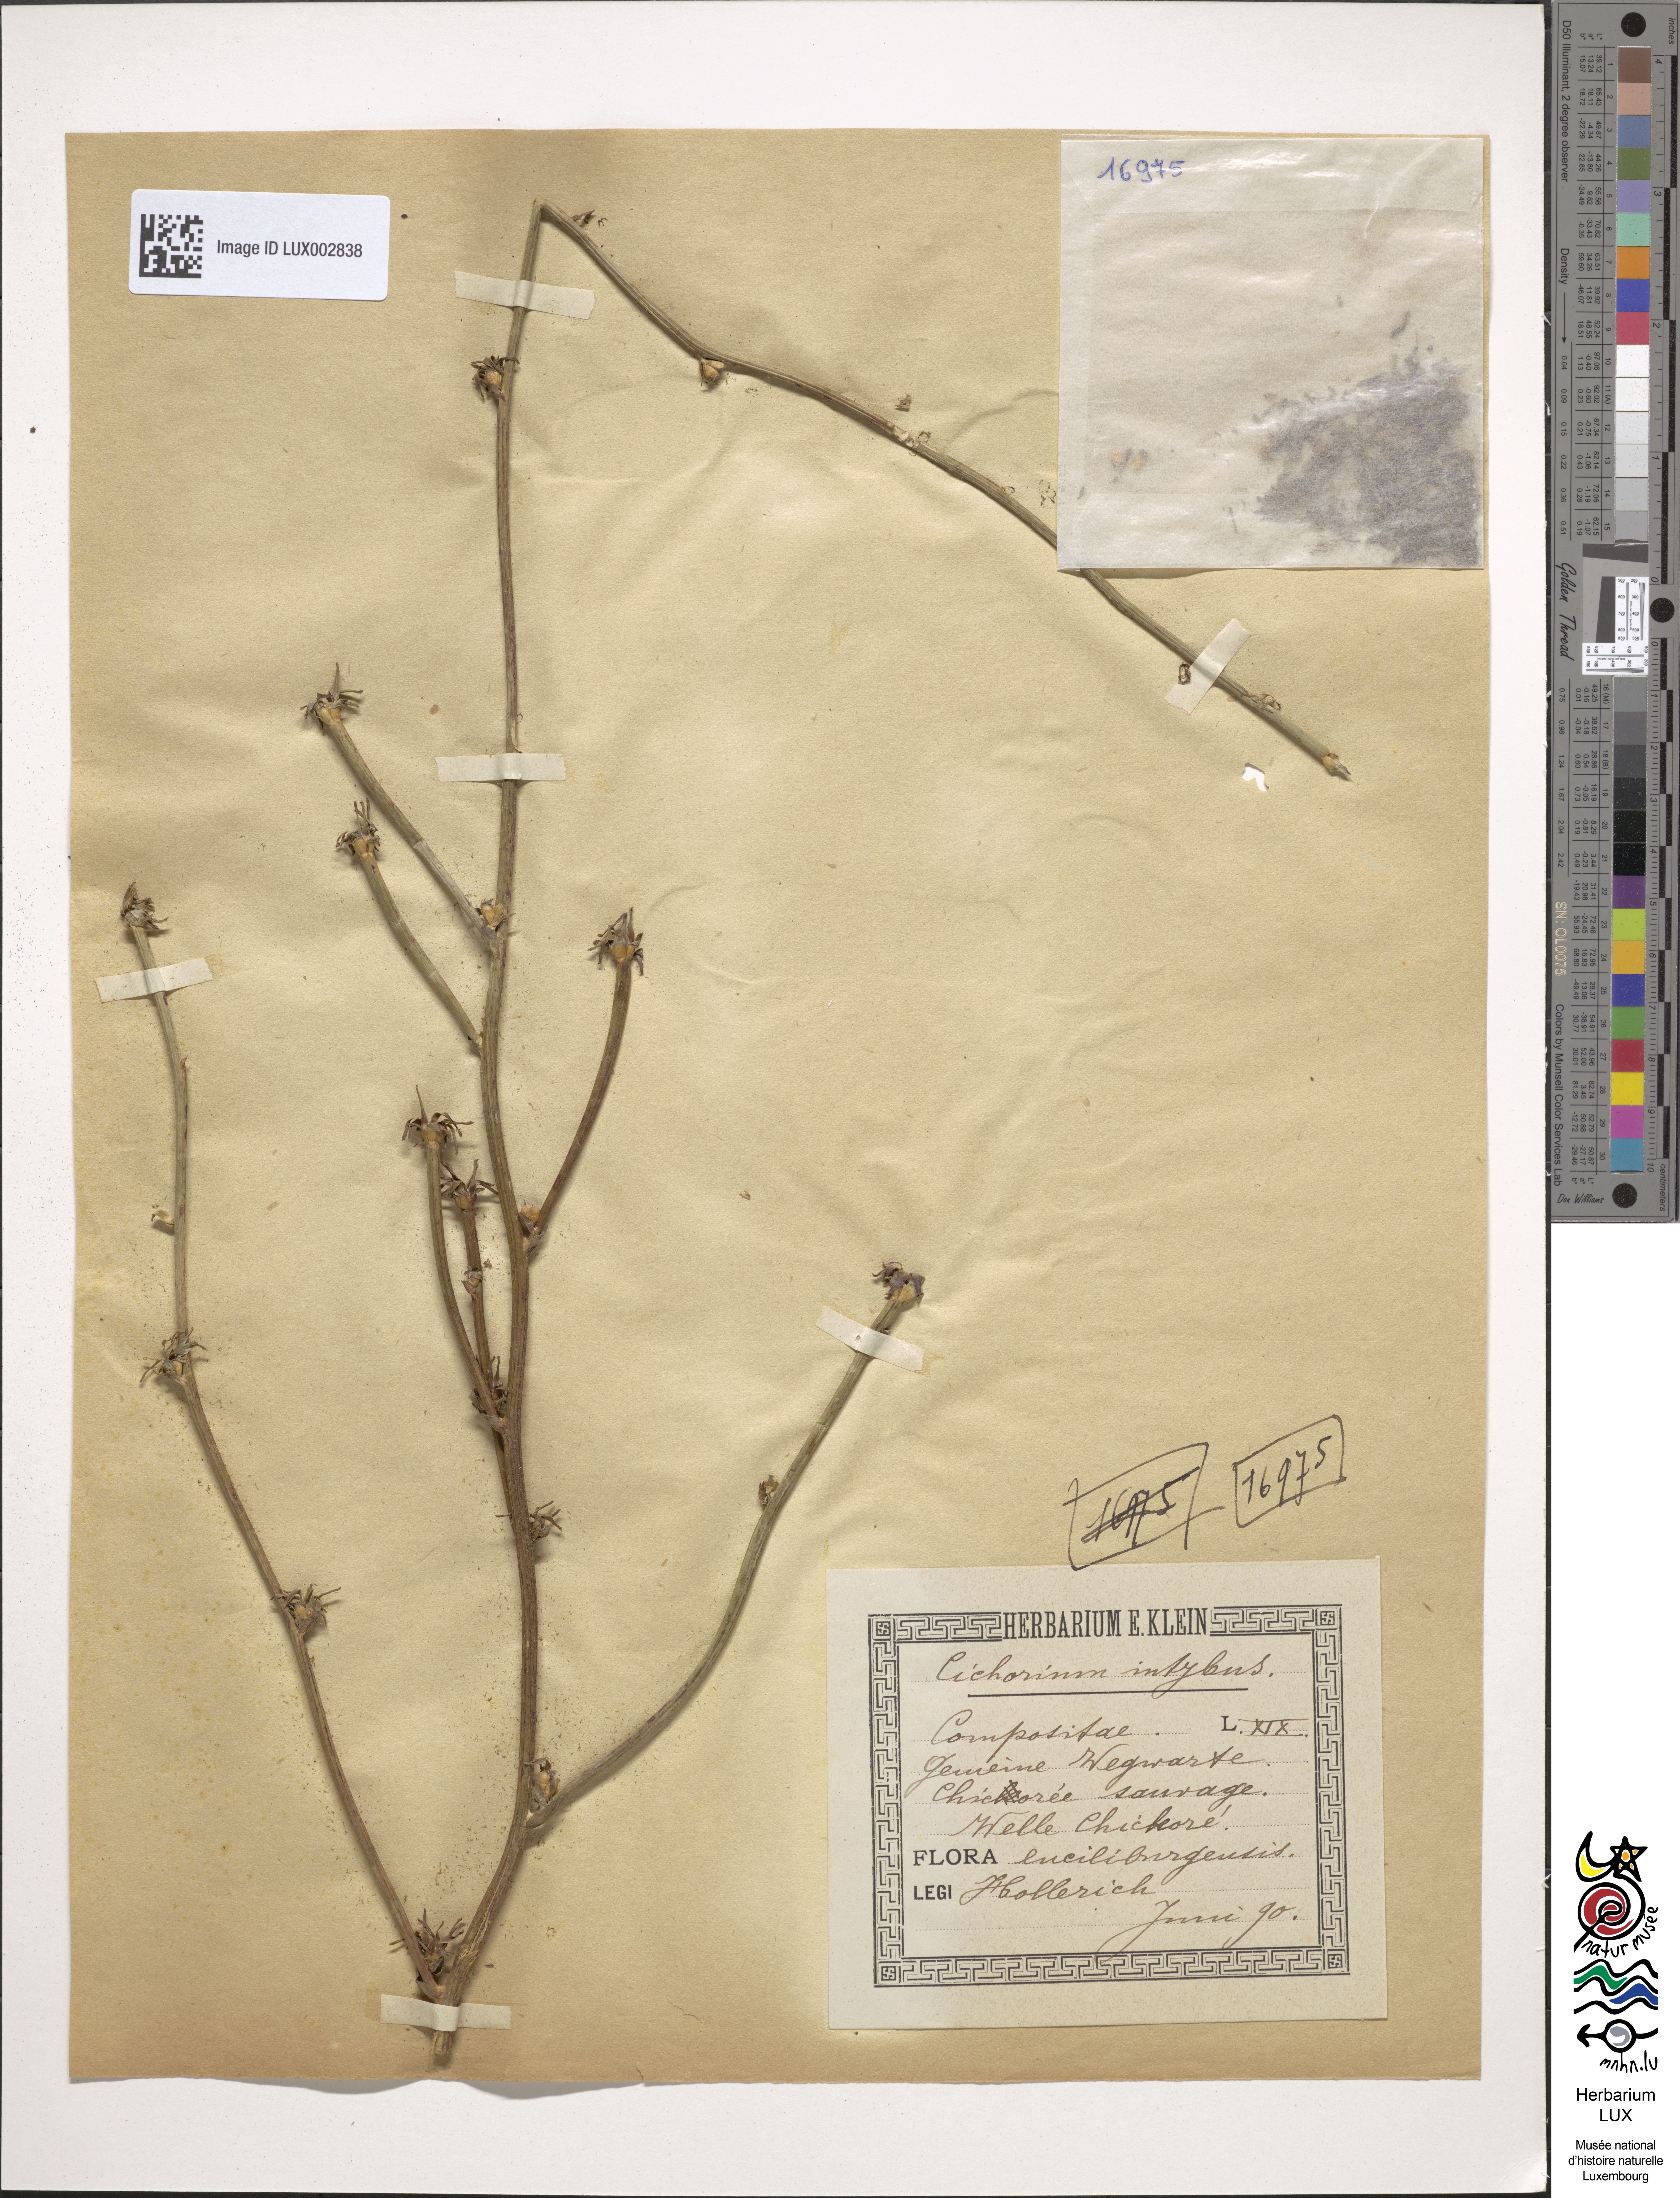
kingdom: Plantae
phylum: Tracheophyta
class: Magnoliopsida
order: Asterales
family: Asteraceae
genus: Cichorium
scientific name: Cichorium intybus
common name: Chicory
